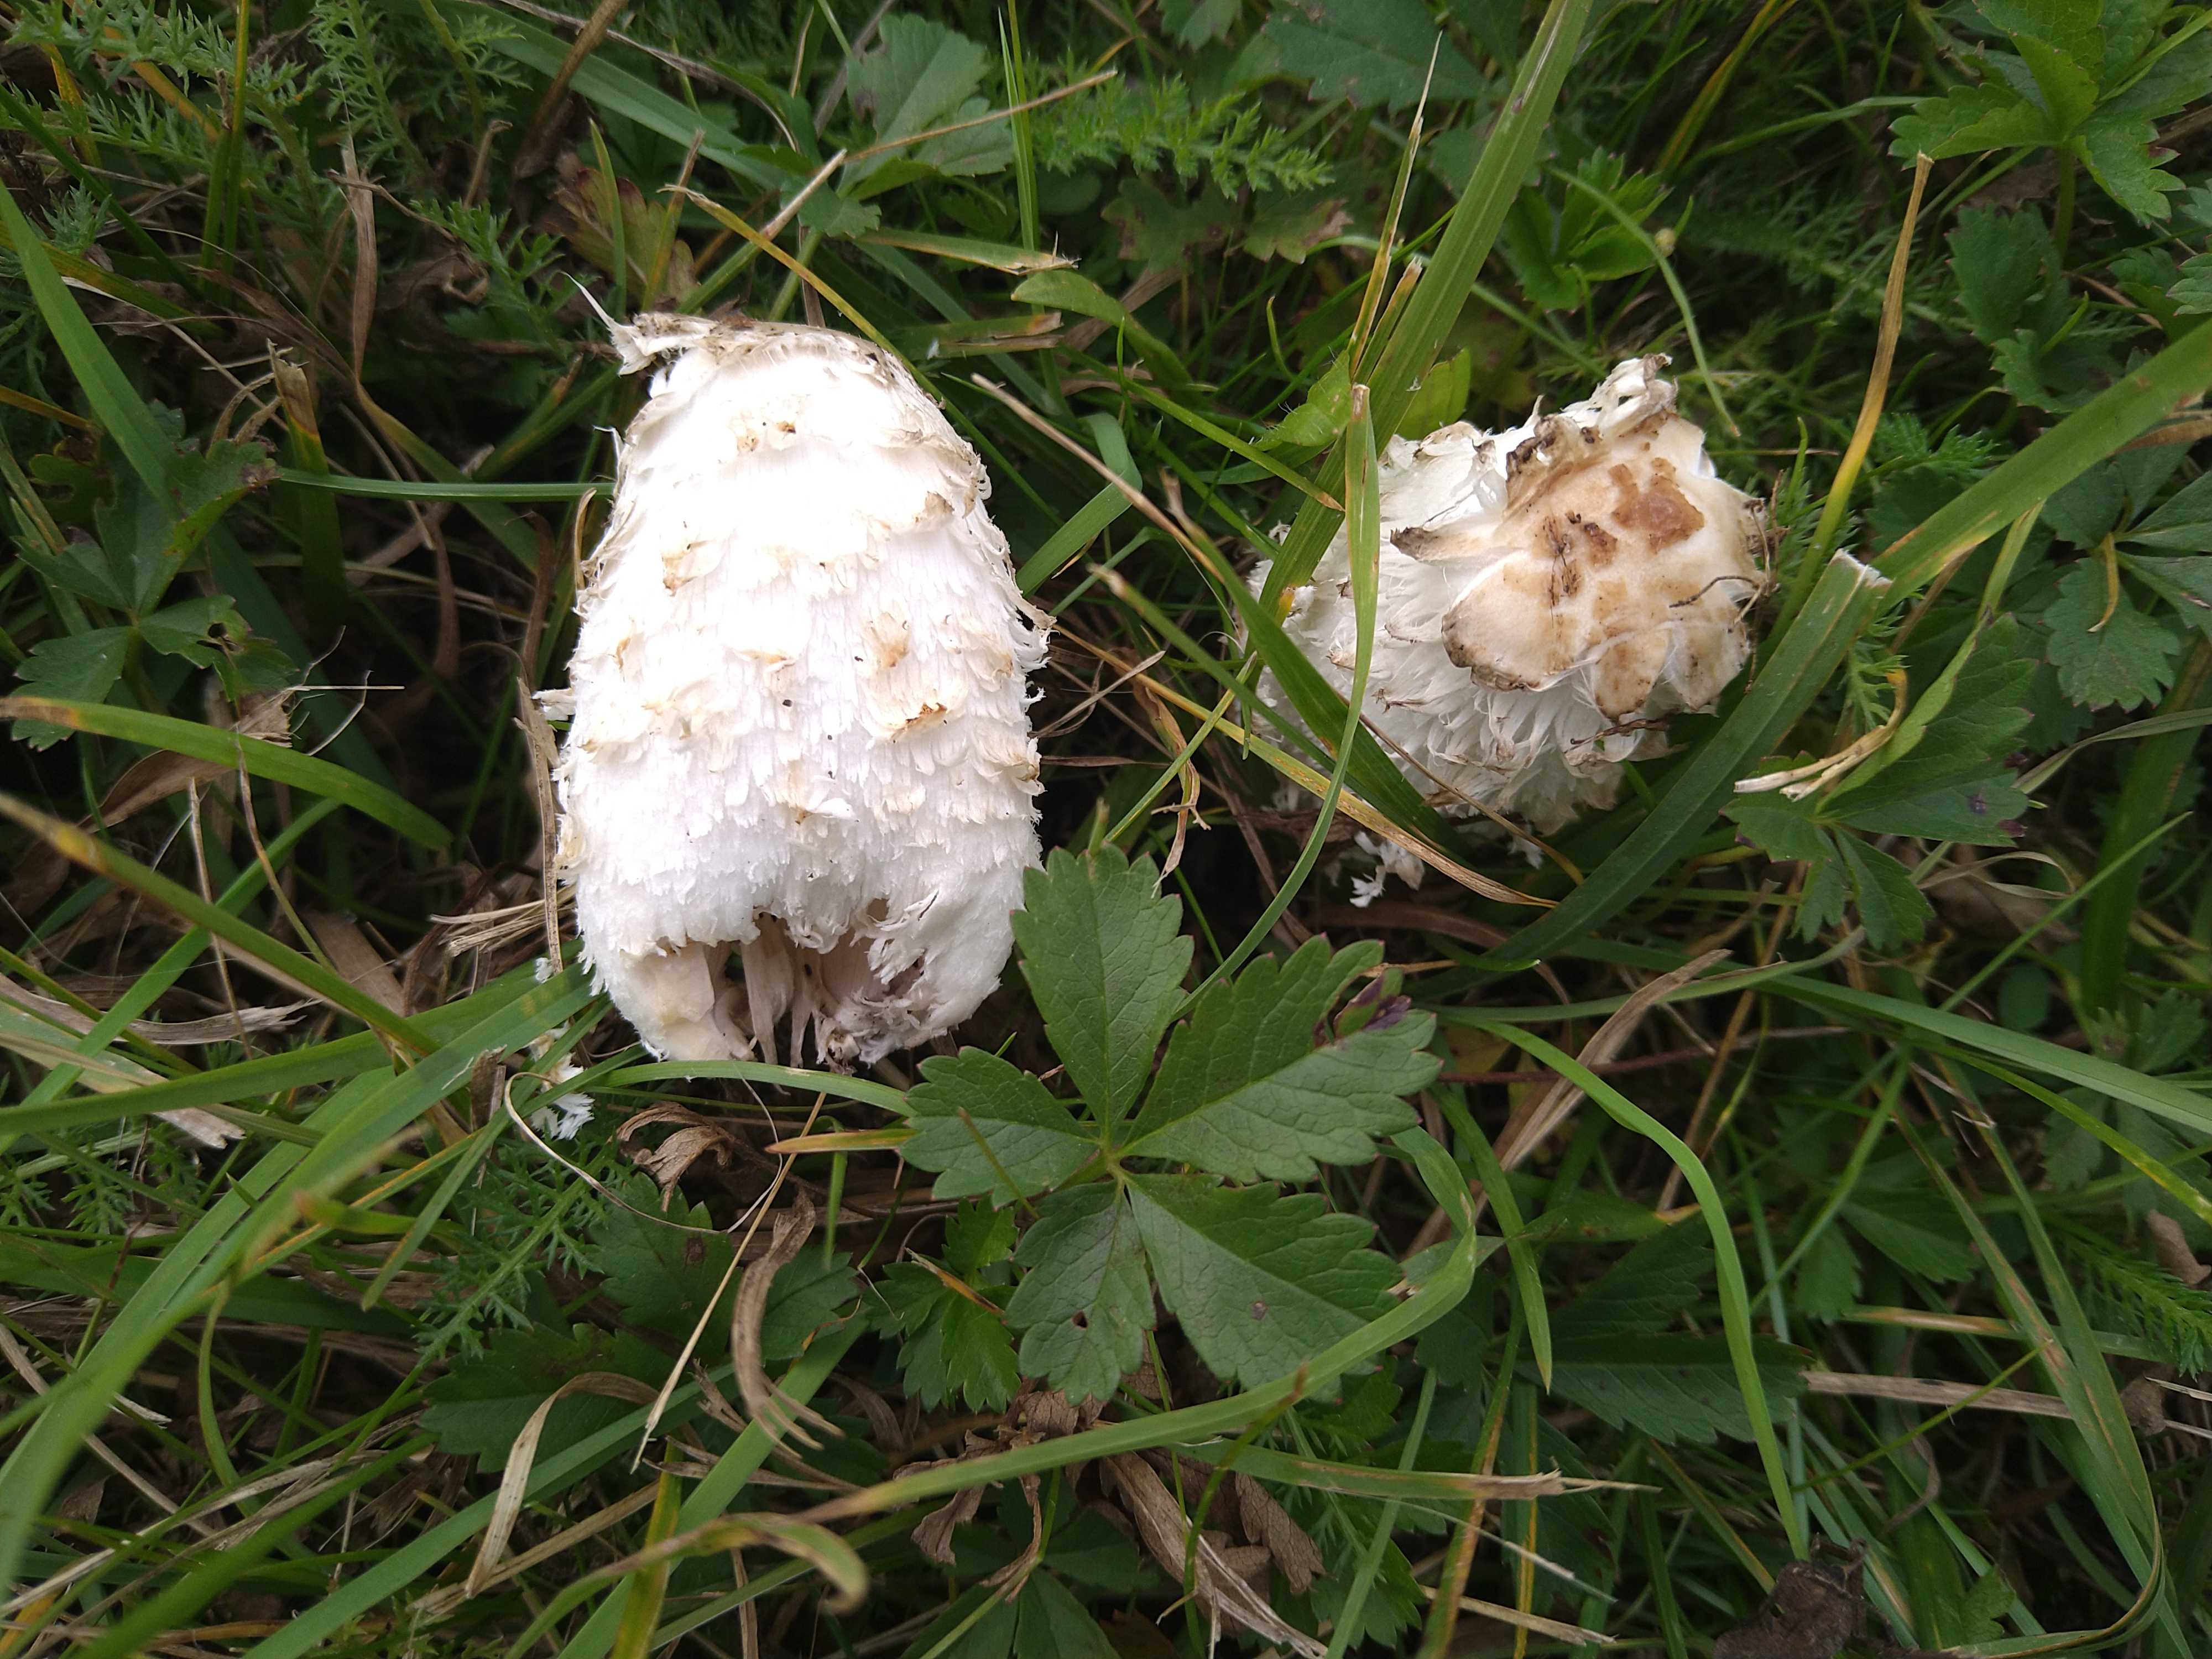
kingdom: Fungi
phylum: Basidiomycota
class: Agaricomycetes
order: Agaricales
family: Agaricaceae
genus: Coprinus
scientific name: Coprinus comatus
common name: stor parykhat
